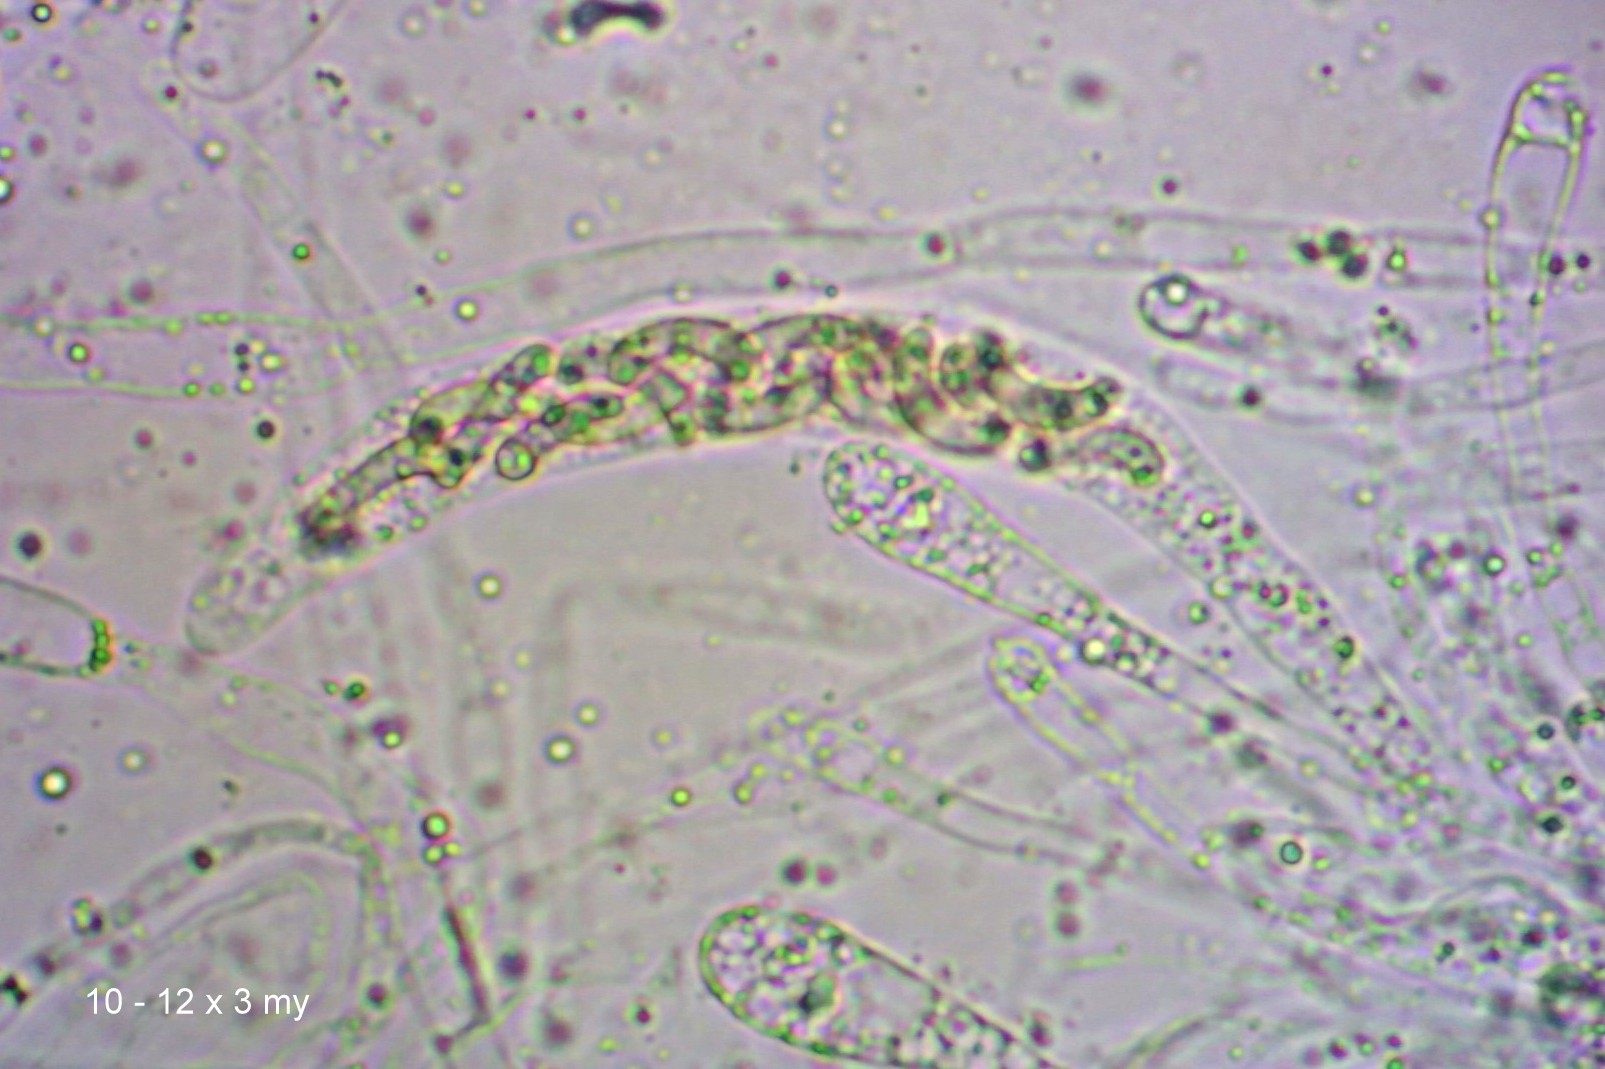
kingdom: Fungi
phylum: Ascomycota
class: Sordariomycetes
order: Xylariales
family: Diatrypaceae
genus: Diatrypella
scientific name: Diatrypella quercina
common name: ege-kulskorpe
